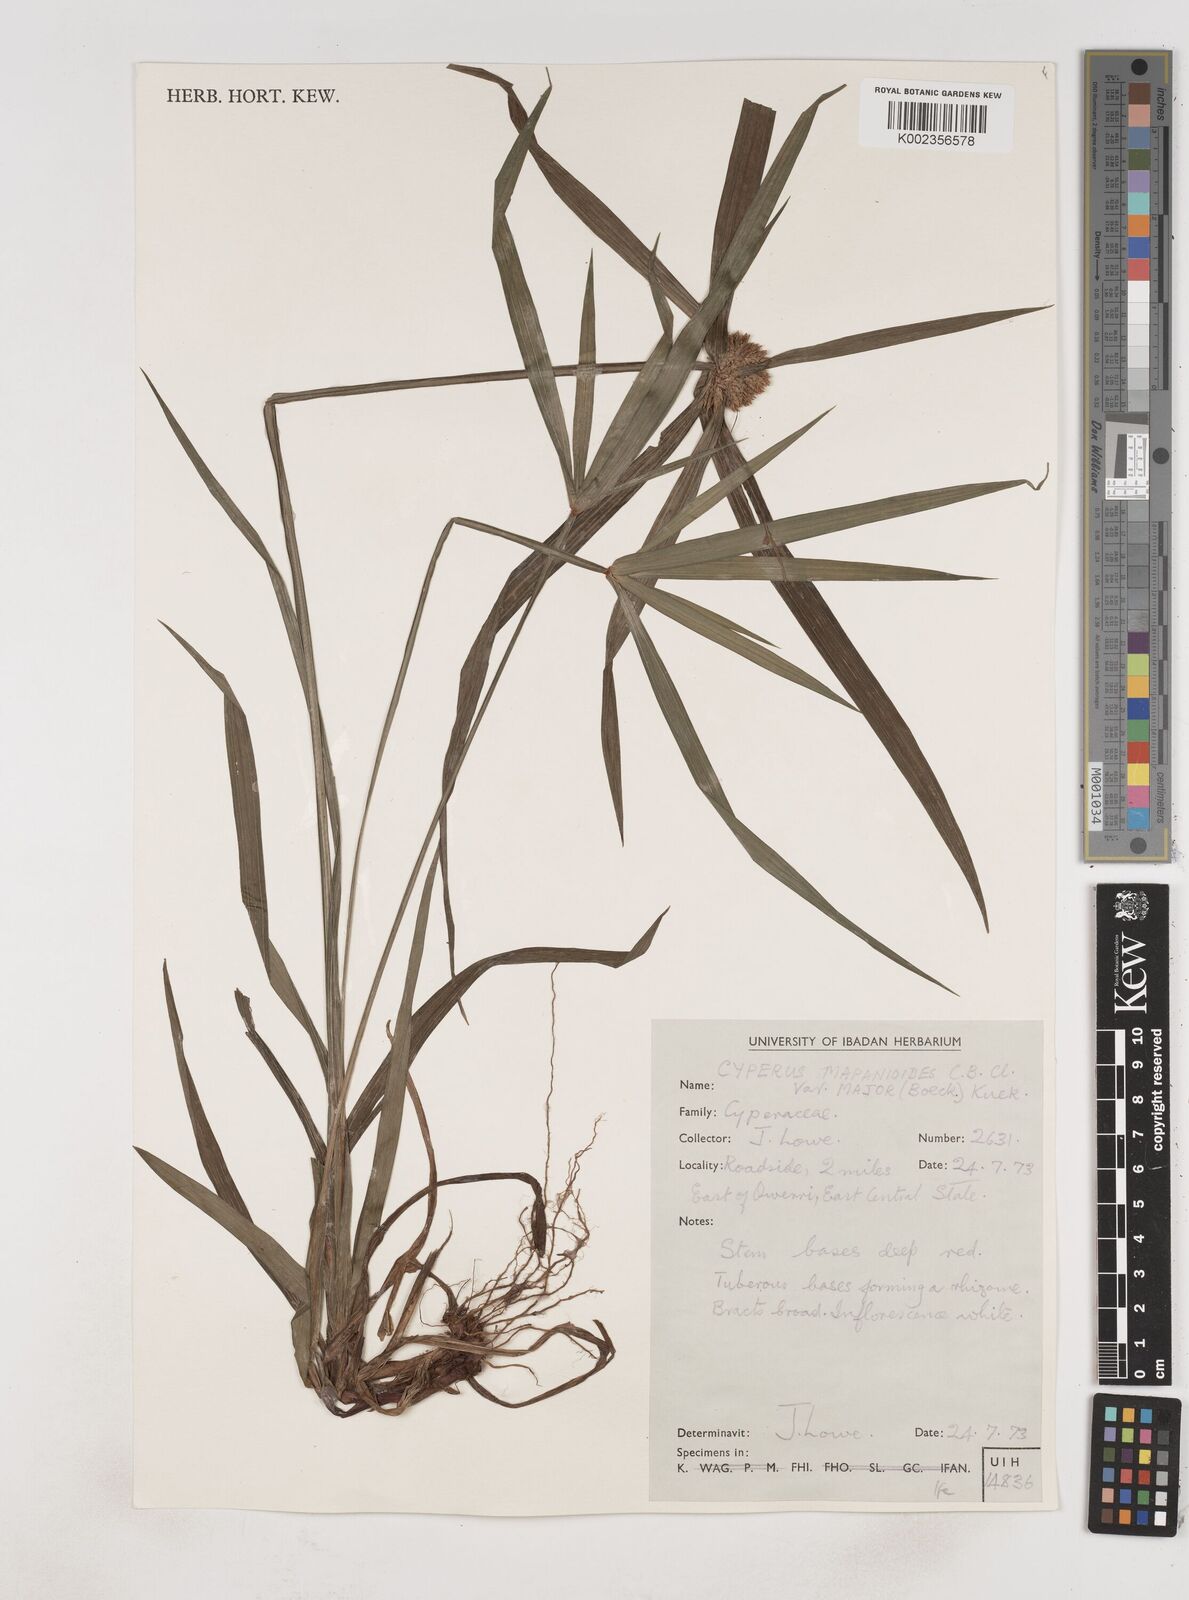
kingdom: Plantae
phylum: Tracheophyta
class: Liliopsida
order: Poales
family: Cyperaceae
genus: Cyperus
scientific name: Cyperus mapanioides
